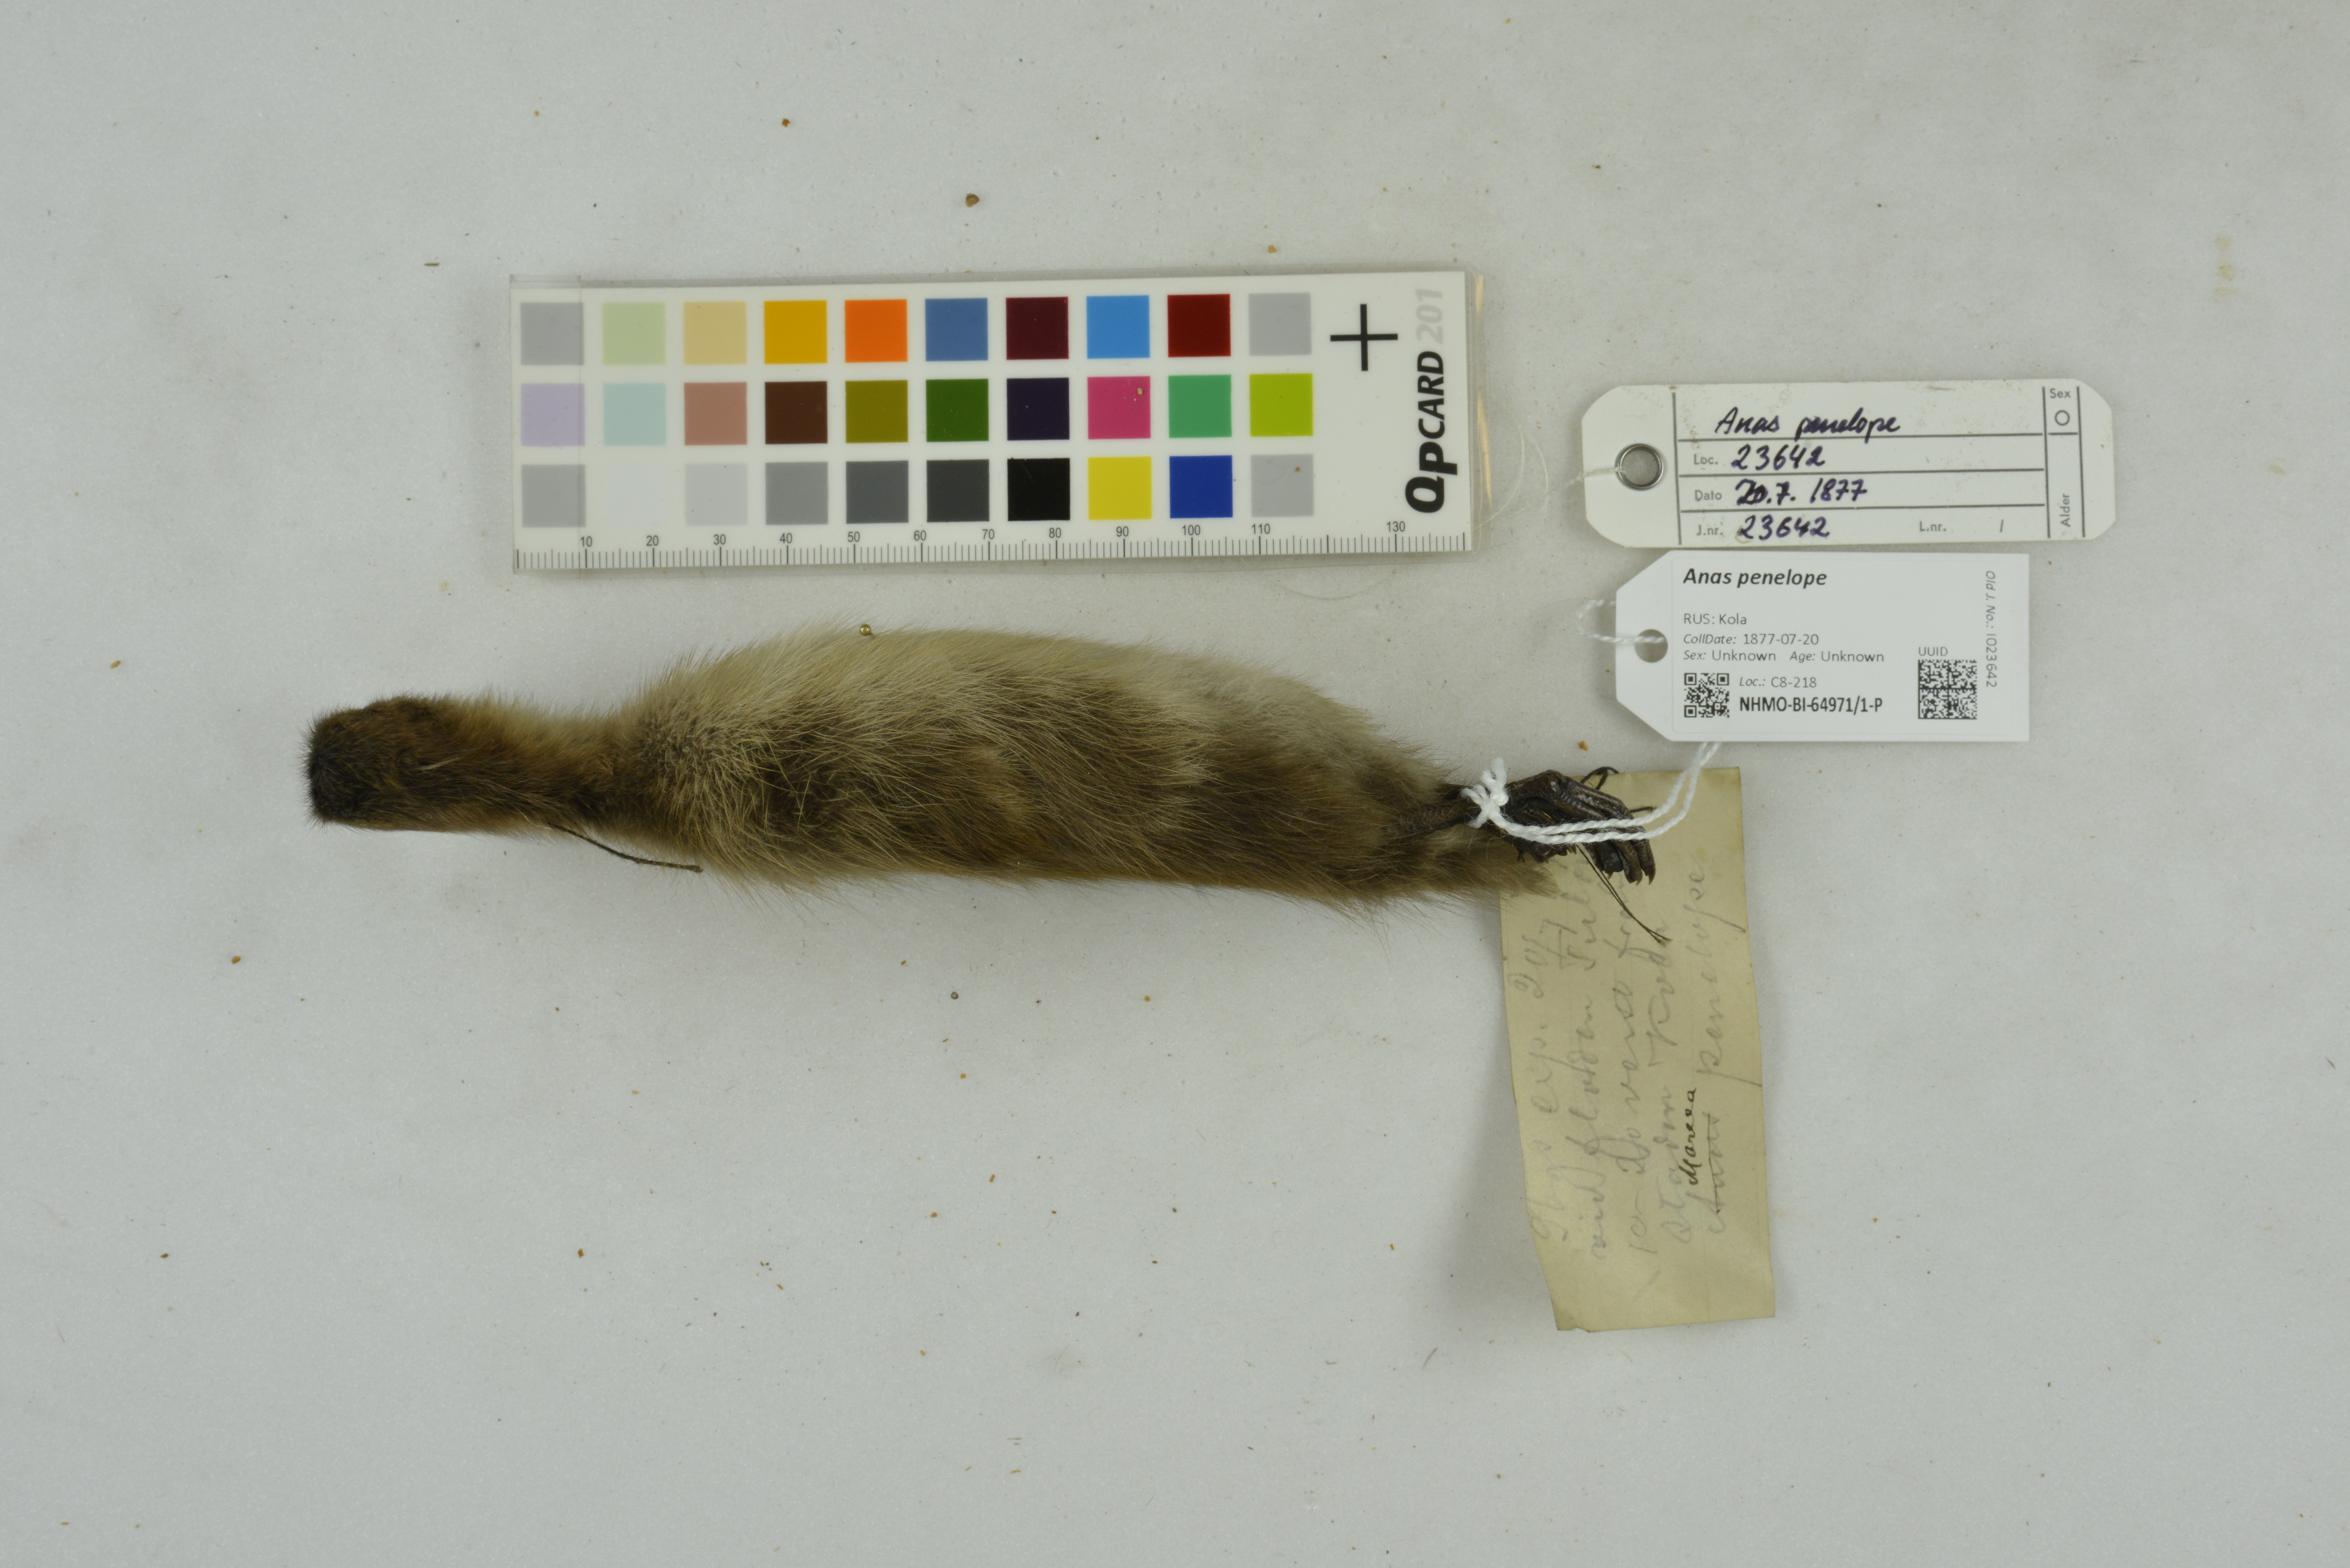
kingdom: Animalia
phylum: Chordata
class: Aves
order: Anseriformes
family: Anatidae
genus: Mareca
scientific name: Mareca penelope
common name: Eurasian wigeon
